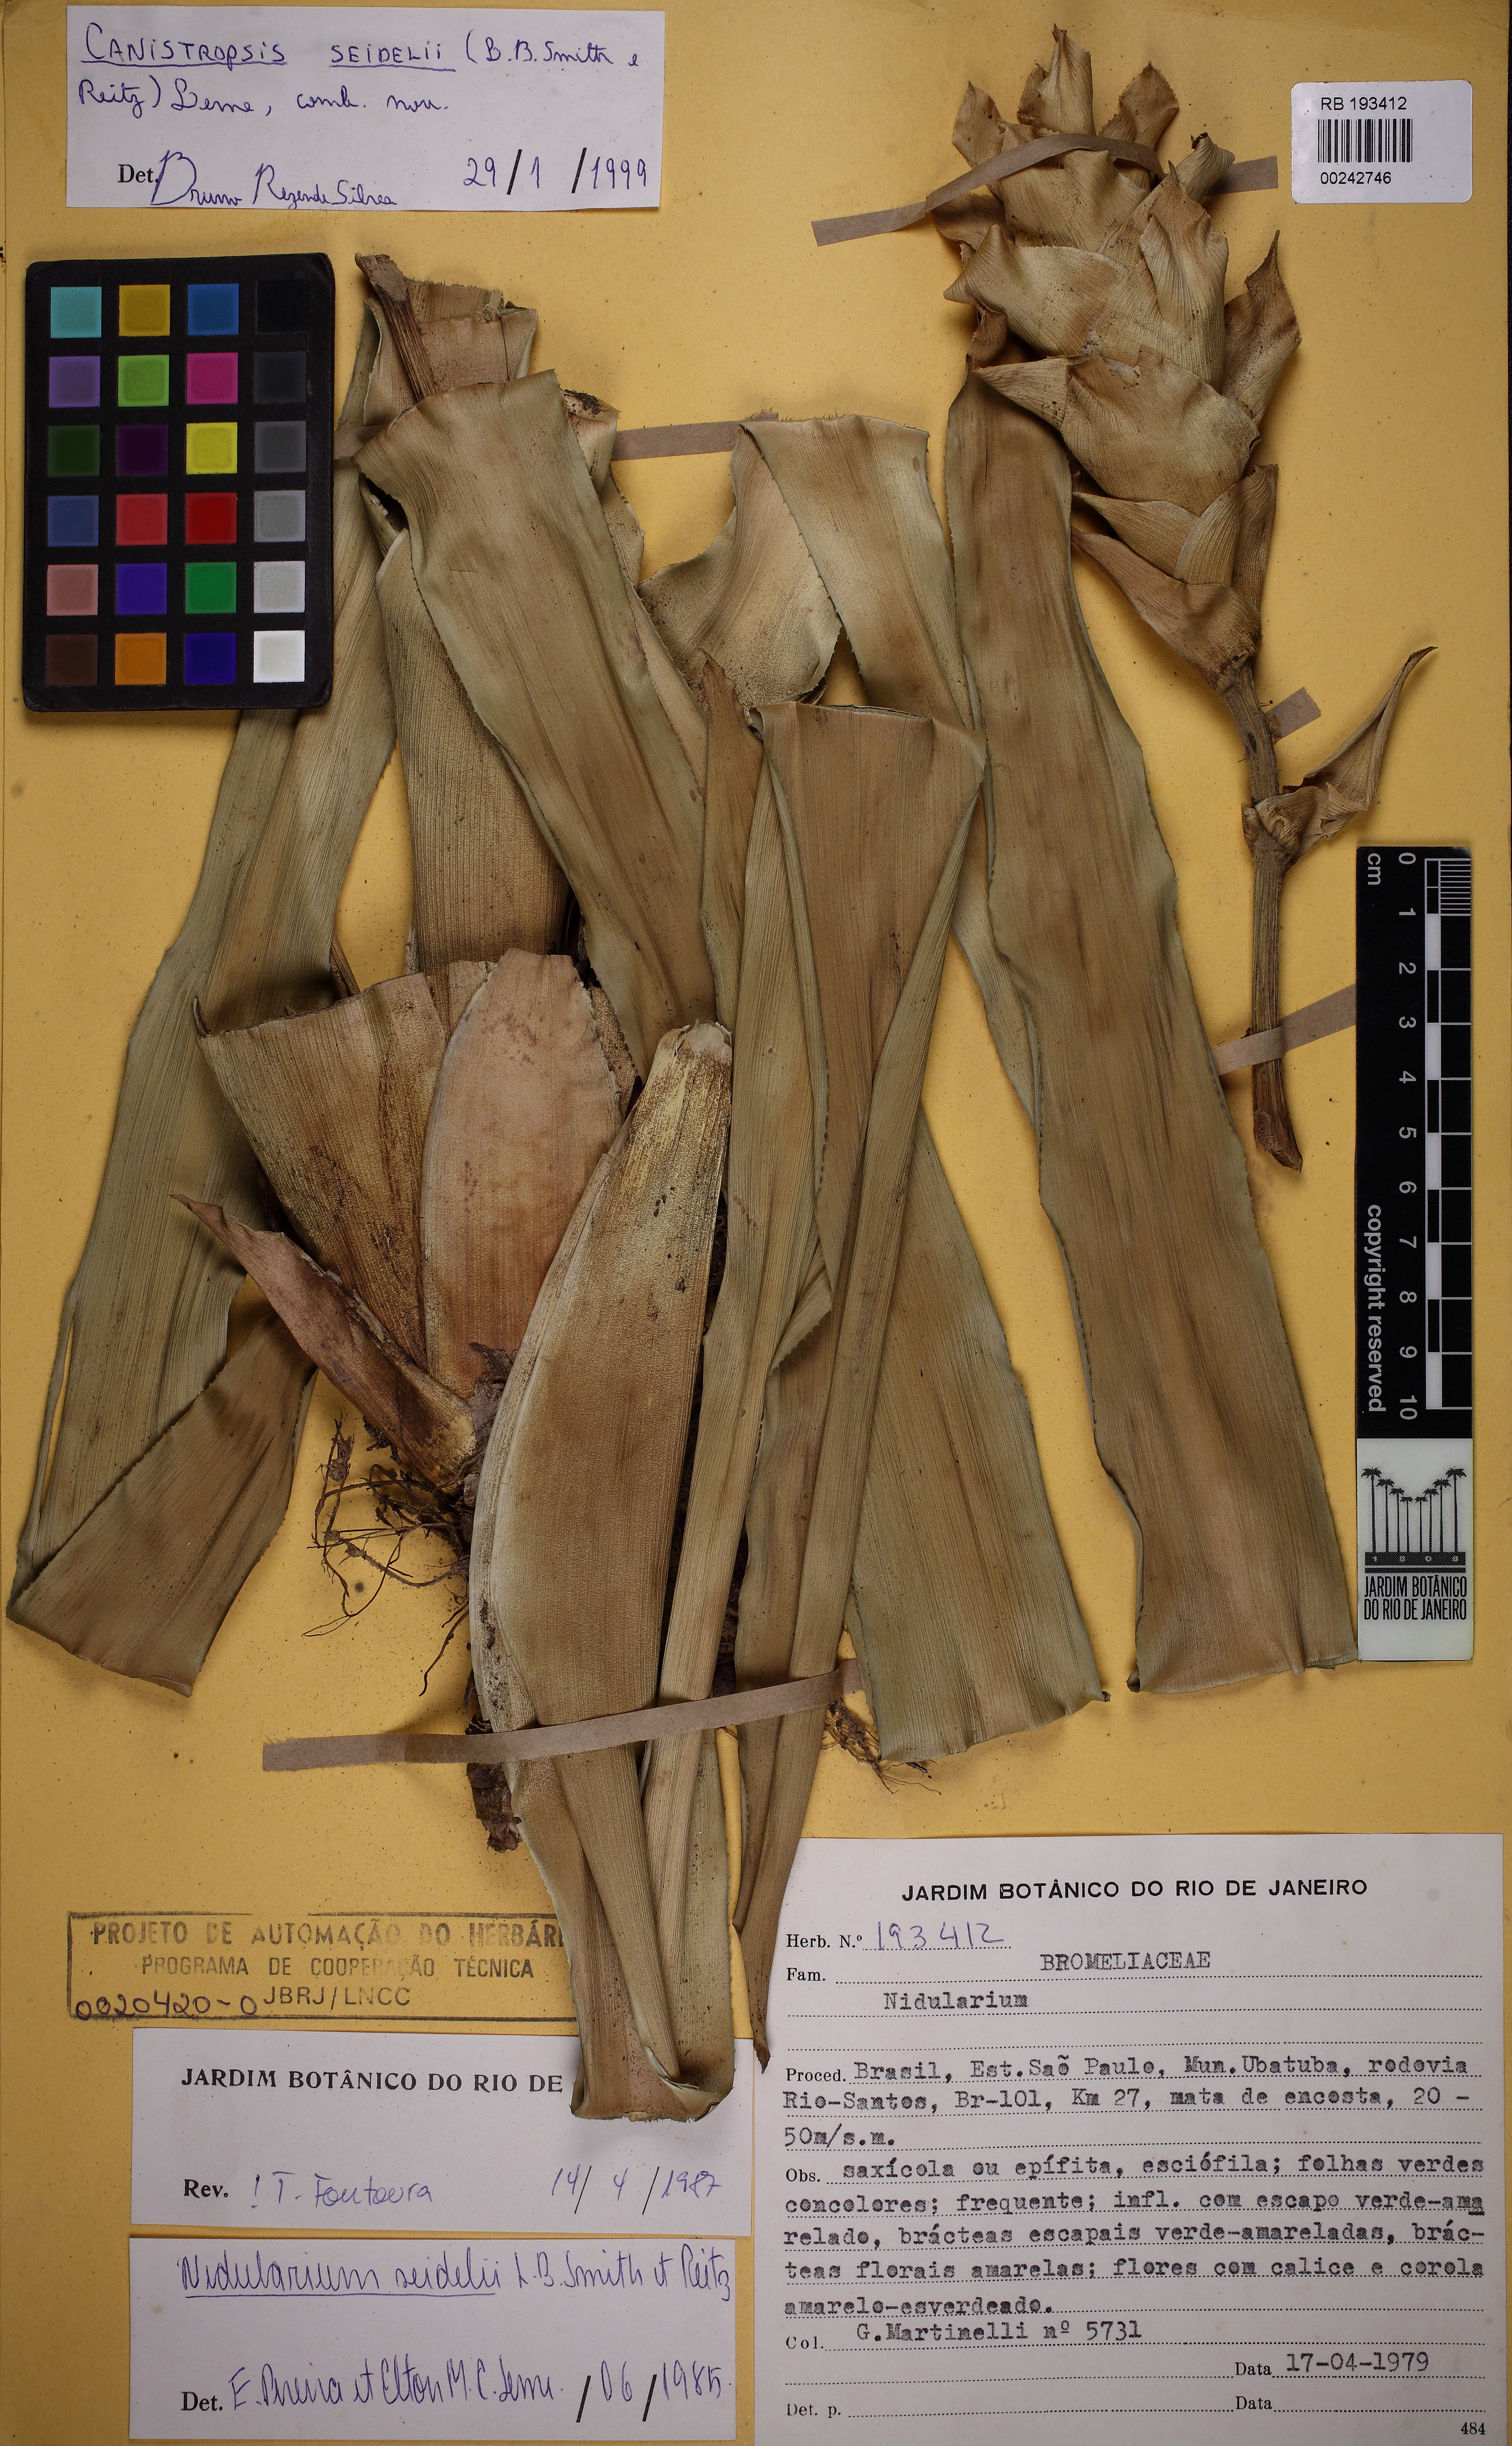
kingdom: Plantae
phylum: Tracheophyta
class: Liliopsida
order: Poales
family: Bromeliaceae
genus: Canistropsis
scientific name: Canistropsis seidelii
